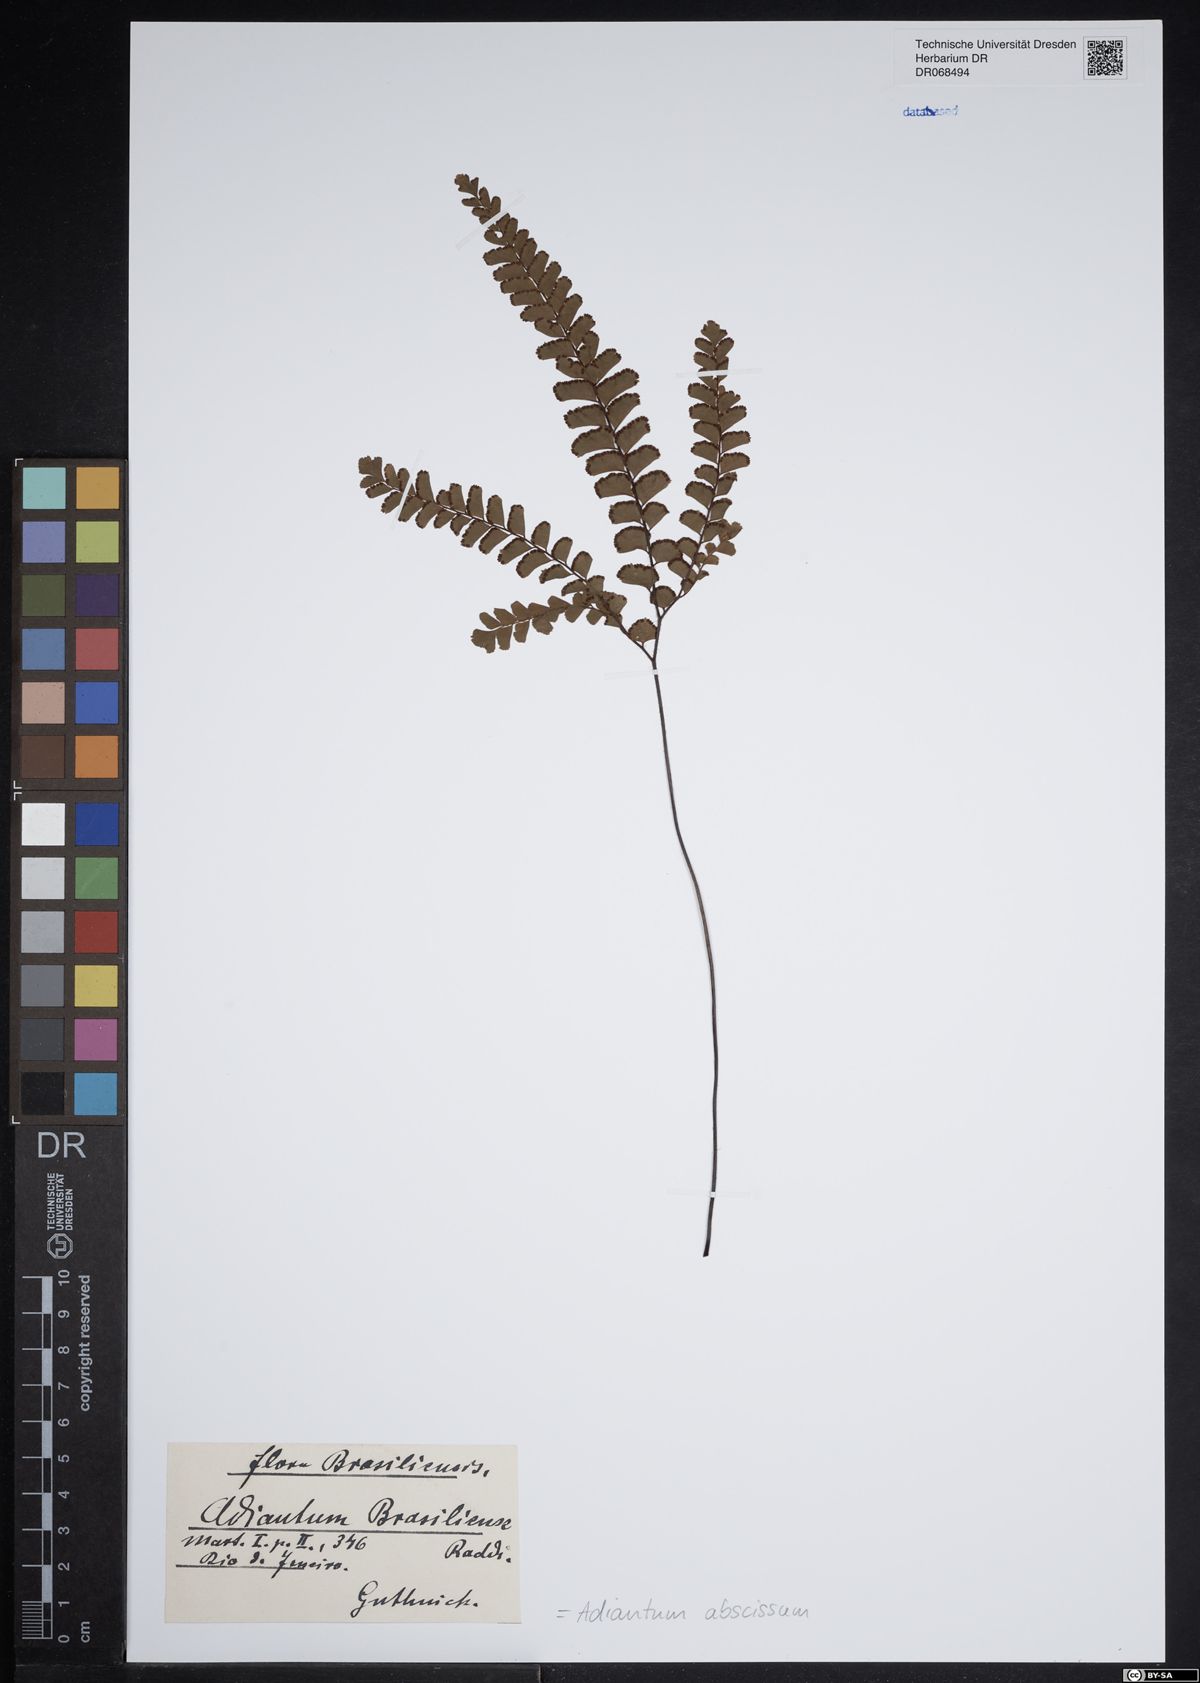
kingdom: Plantae
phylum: Tracheophyta
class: Polypodiopsida
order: Polypodiales
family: Pteridaceae
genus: Adiantum
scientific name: Adiantum abscissum
